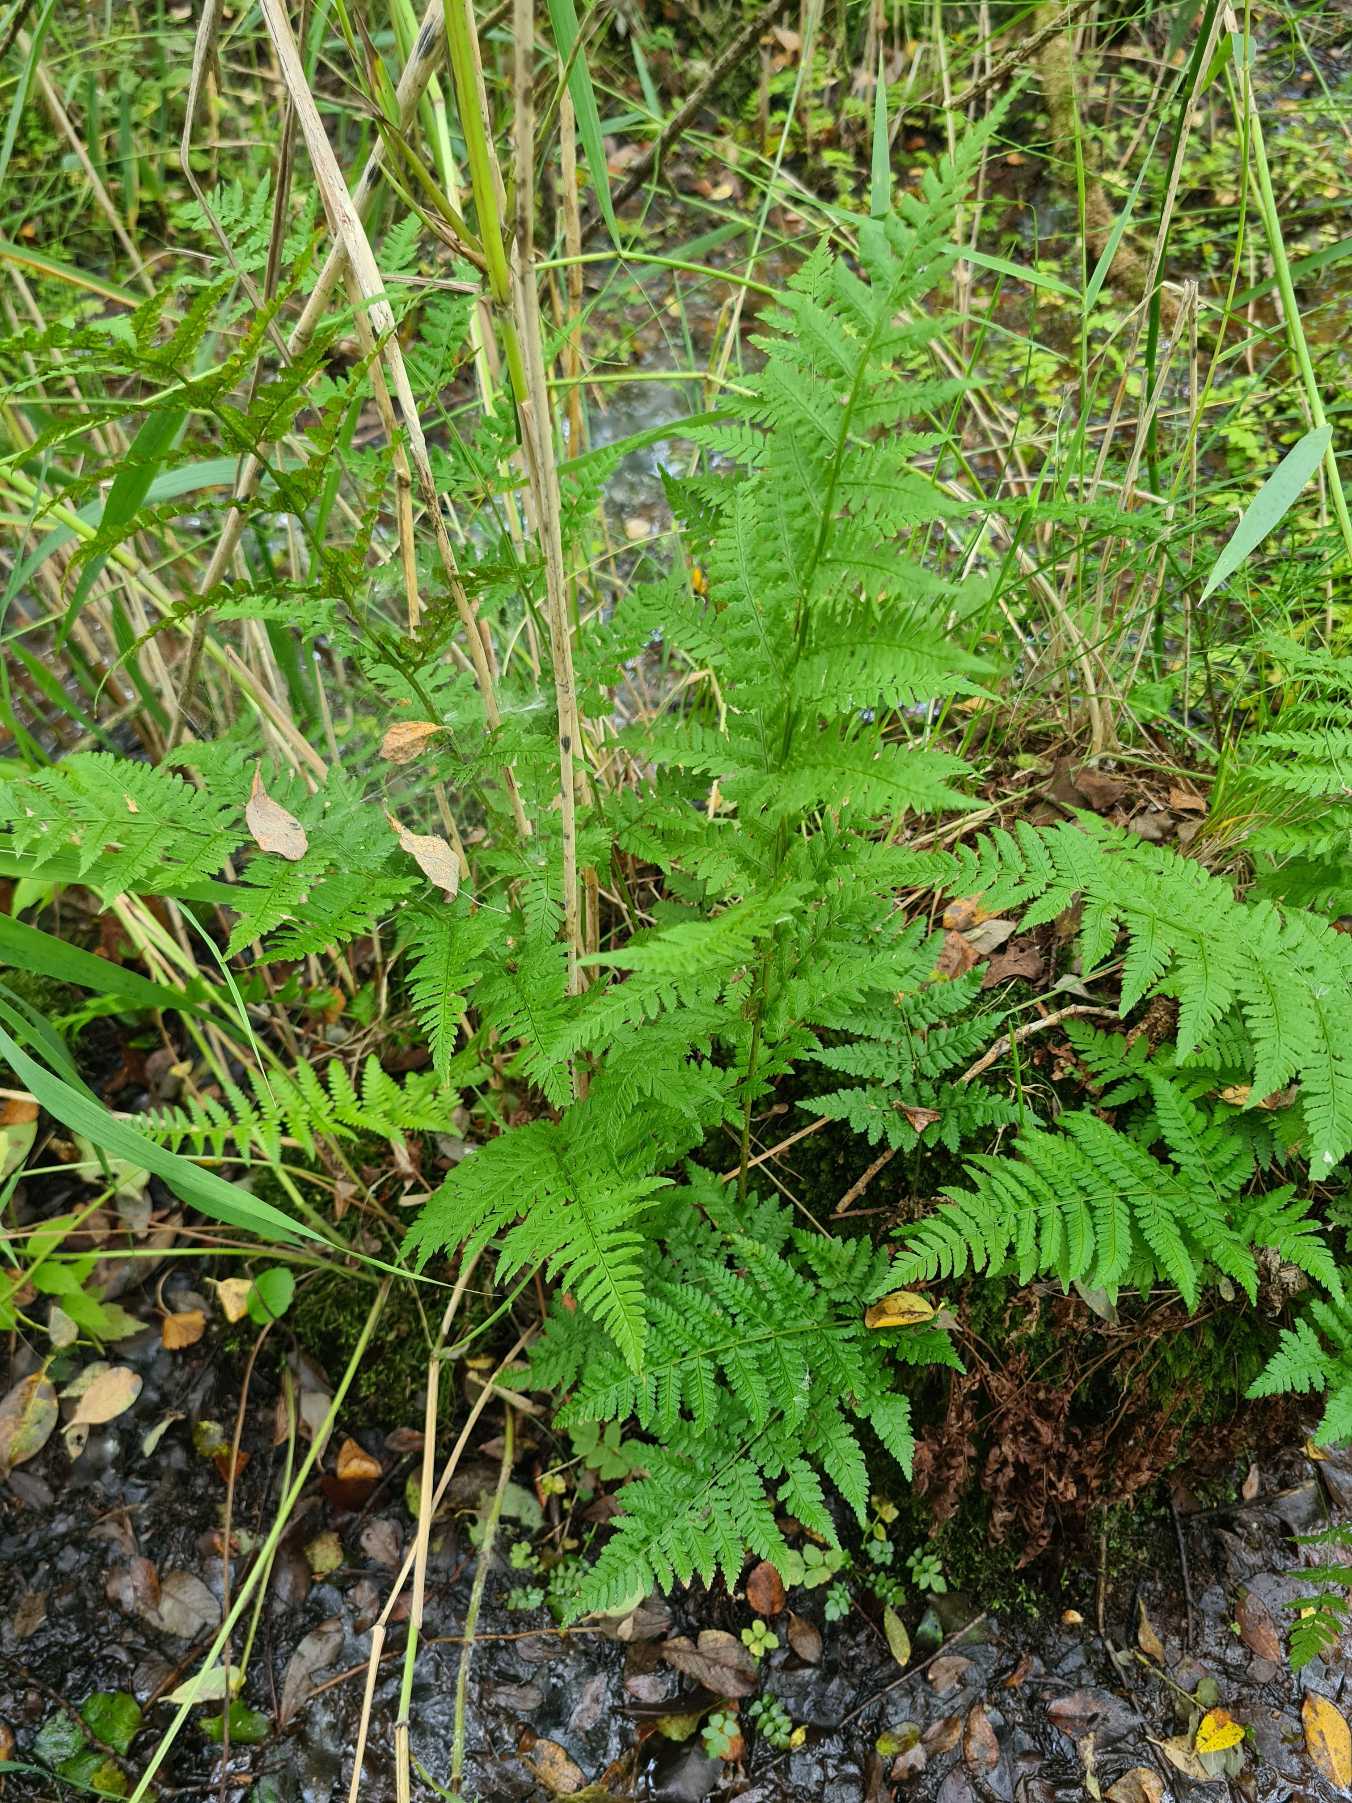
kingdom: Plantae
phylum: Tracheophyta
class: Polypodiopsida
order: Polypodiales
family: Dryopteridaceae
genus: Dryopteris
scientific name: Dryopteris carthusiana
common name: Smalbladet mangeløv
